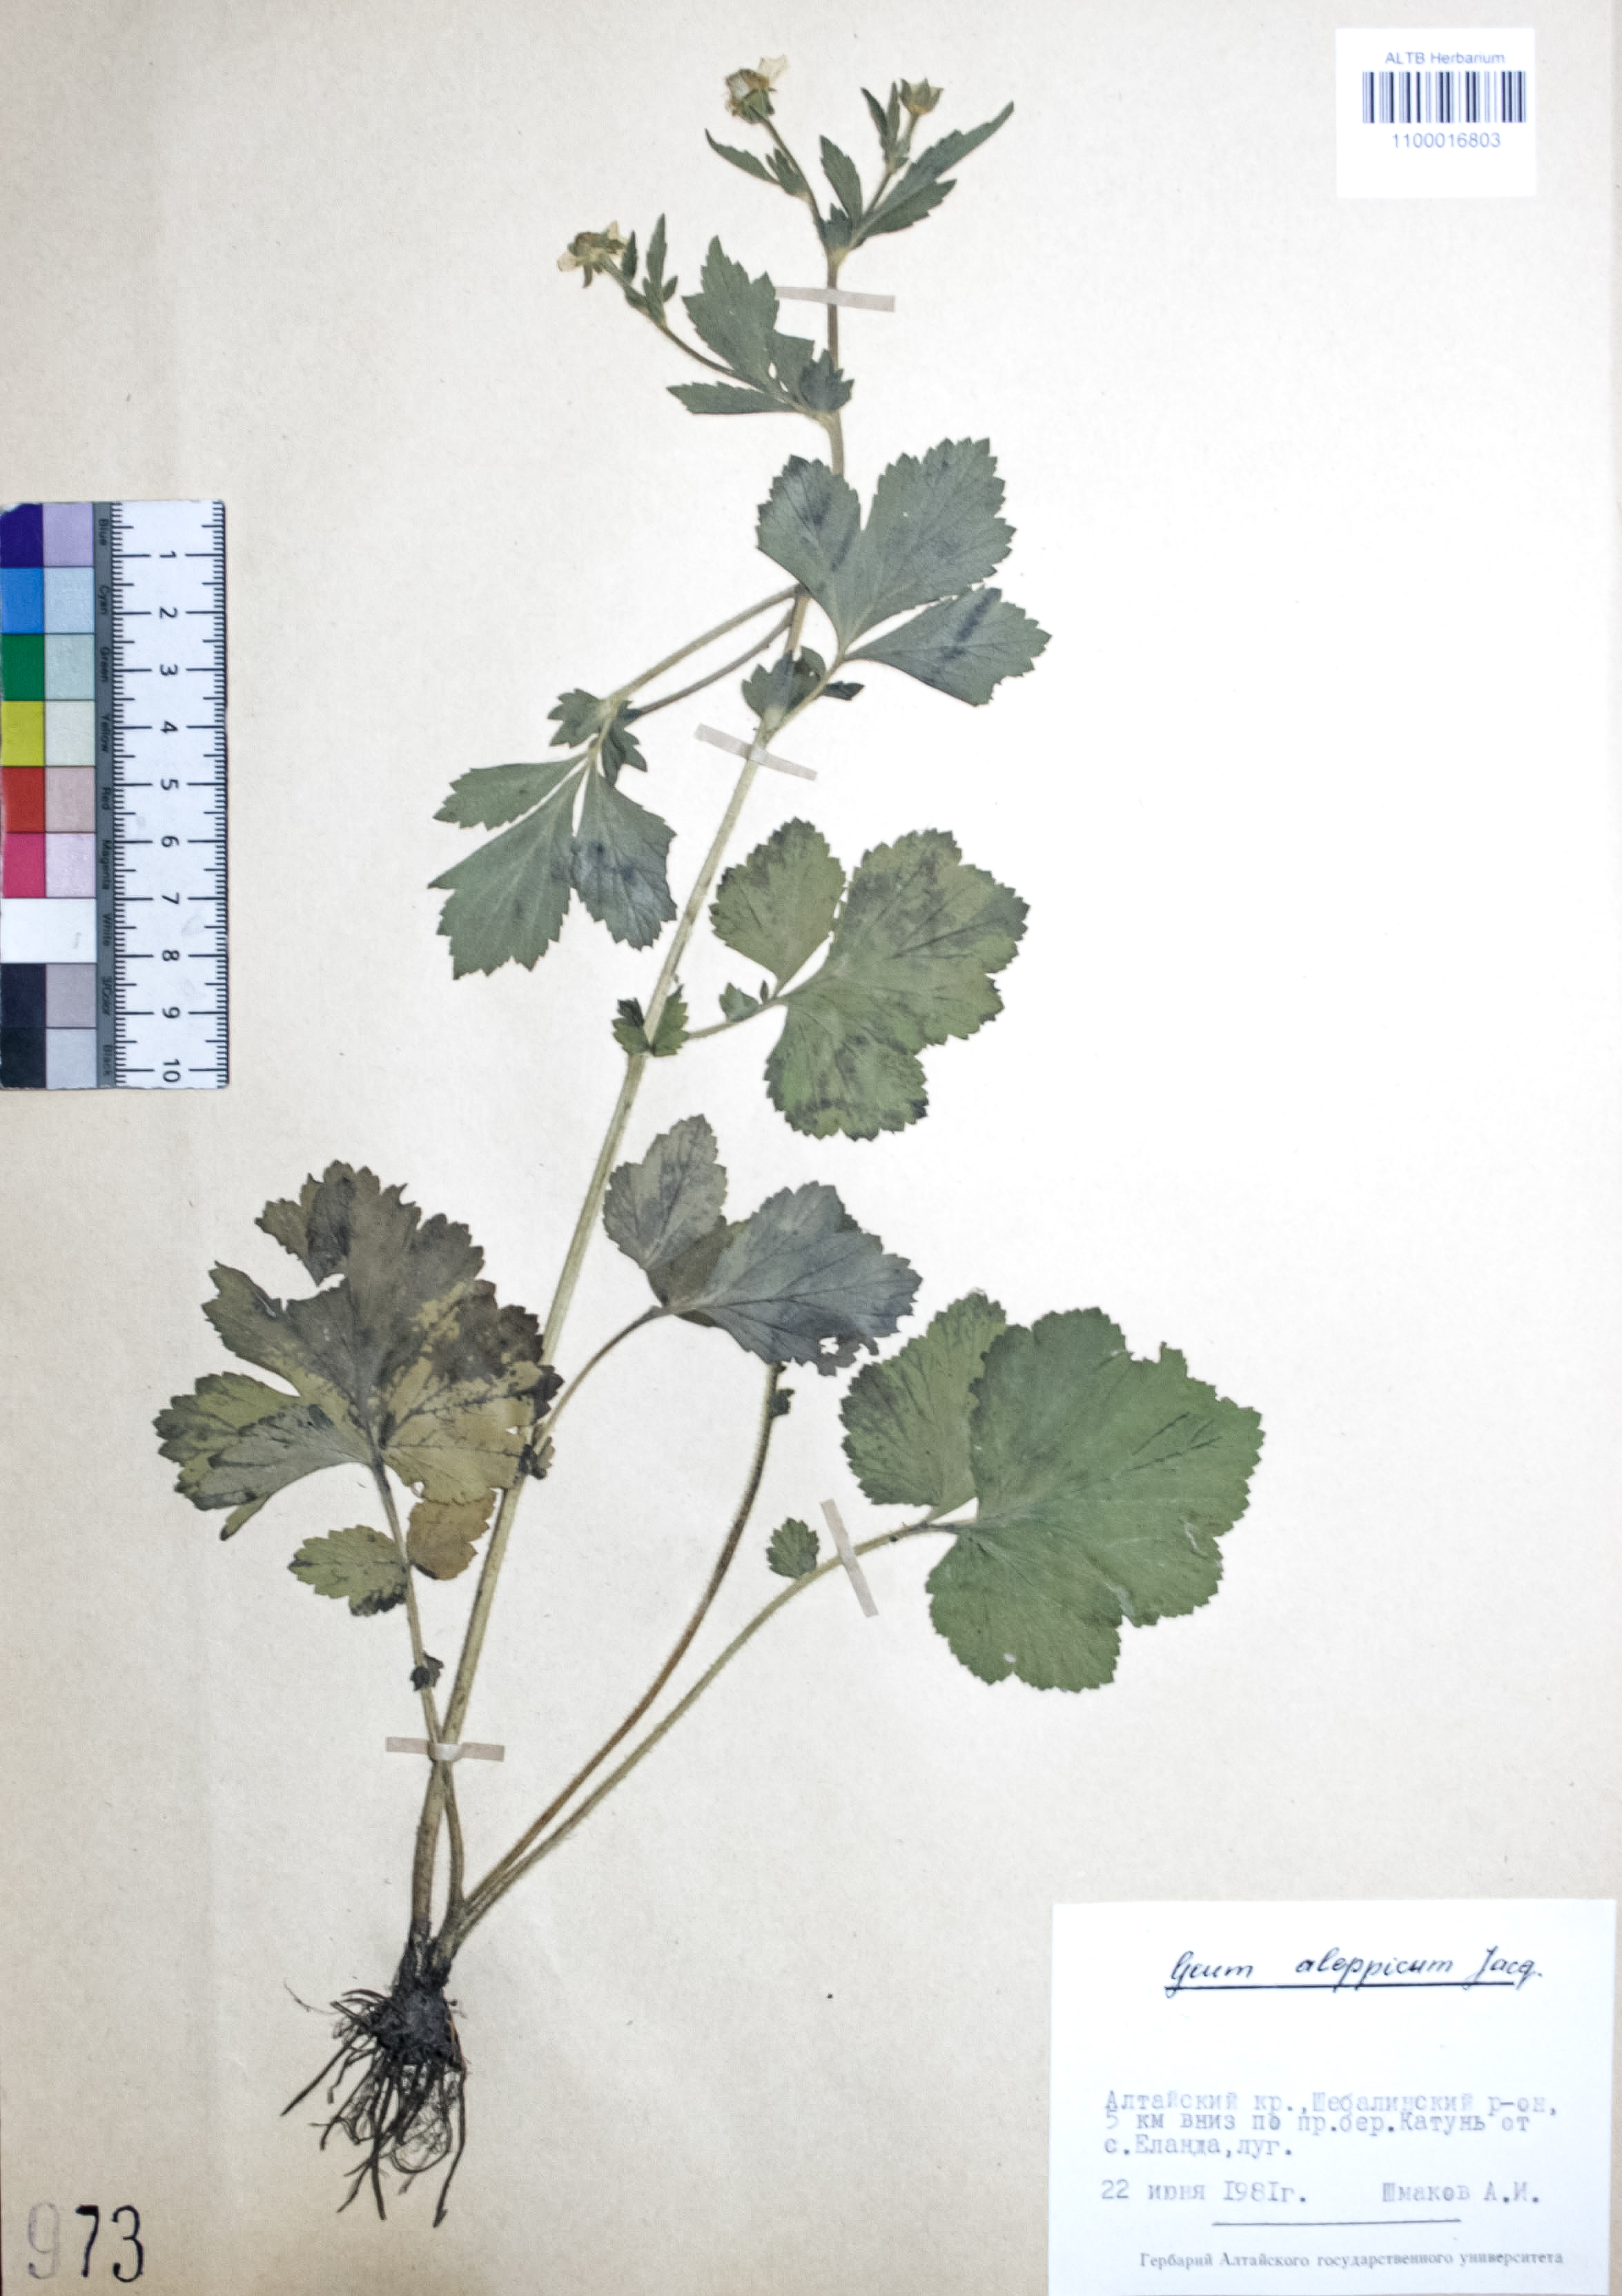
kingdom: Plantae
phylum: Tracheophyta
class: Magnoliopsida
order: Rosales
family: Rosaceae
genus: Geum
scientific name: Geum aleppicum
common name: Yellow avens
